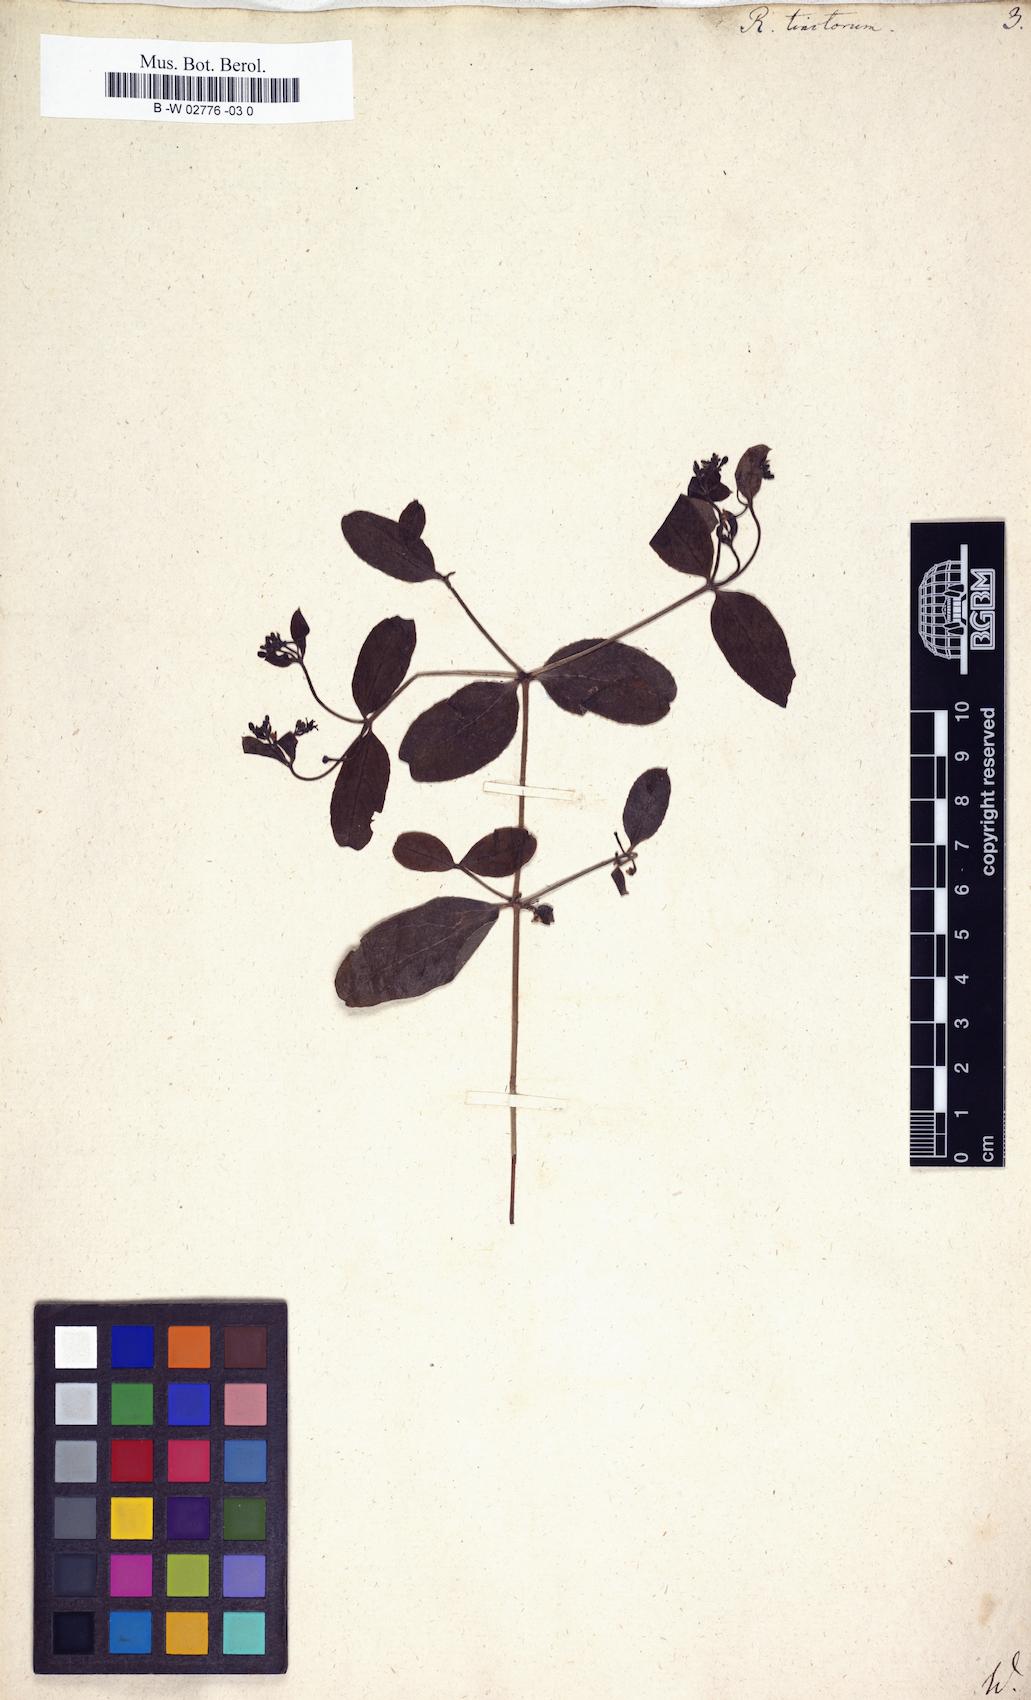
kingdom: Plantae
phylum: Tracheophyta
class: Magnoliopsida
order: Gentianales
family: Rubiaceae
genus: Rubia
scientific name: Rubia tinctorum
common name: Dyer's madder
